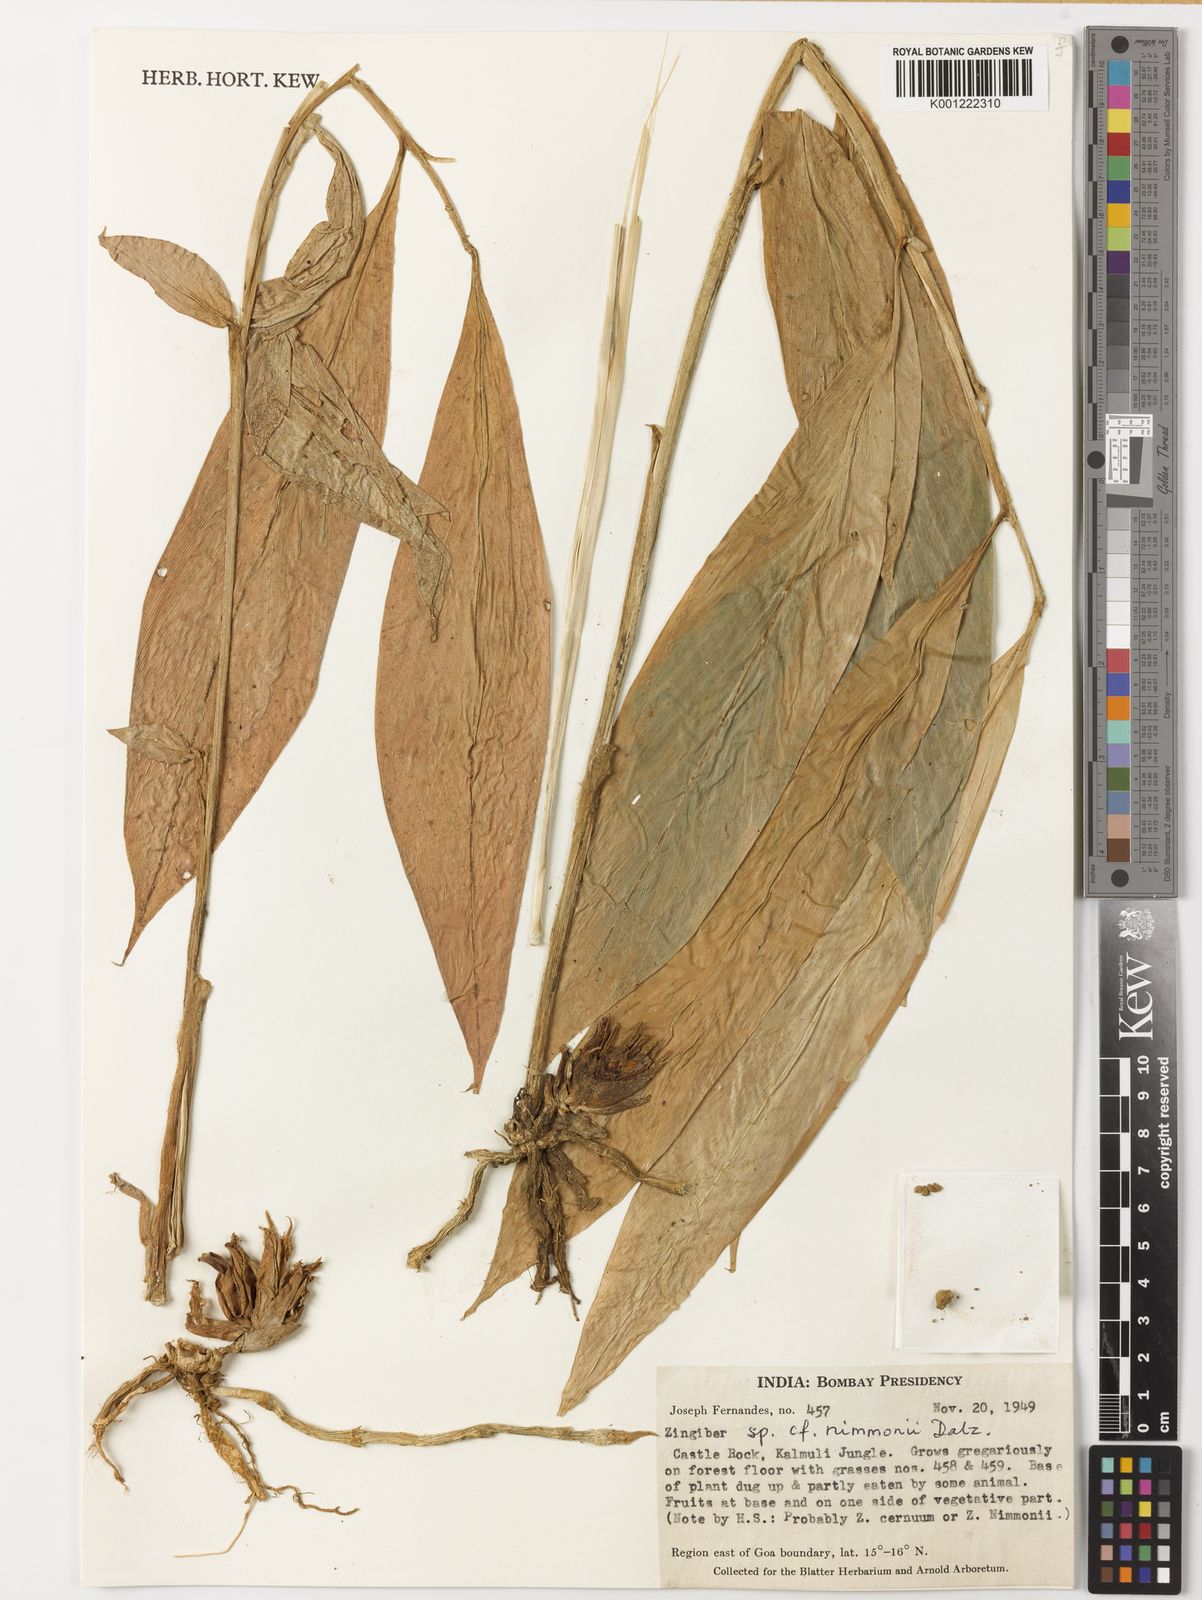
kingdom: Plantae
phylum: Tracheophyta
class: Liliopsida
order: Zingiberales
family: Zingiberaceae
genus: Zingiber
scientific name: Zingiber nimmonii
